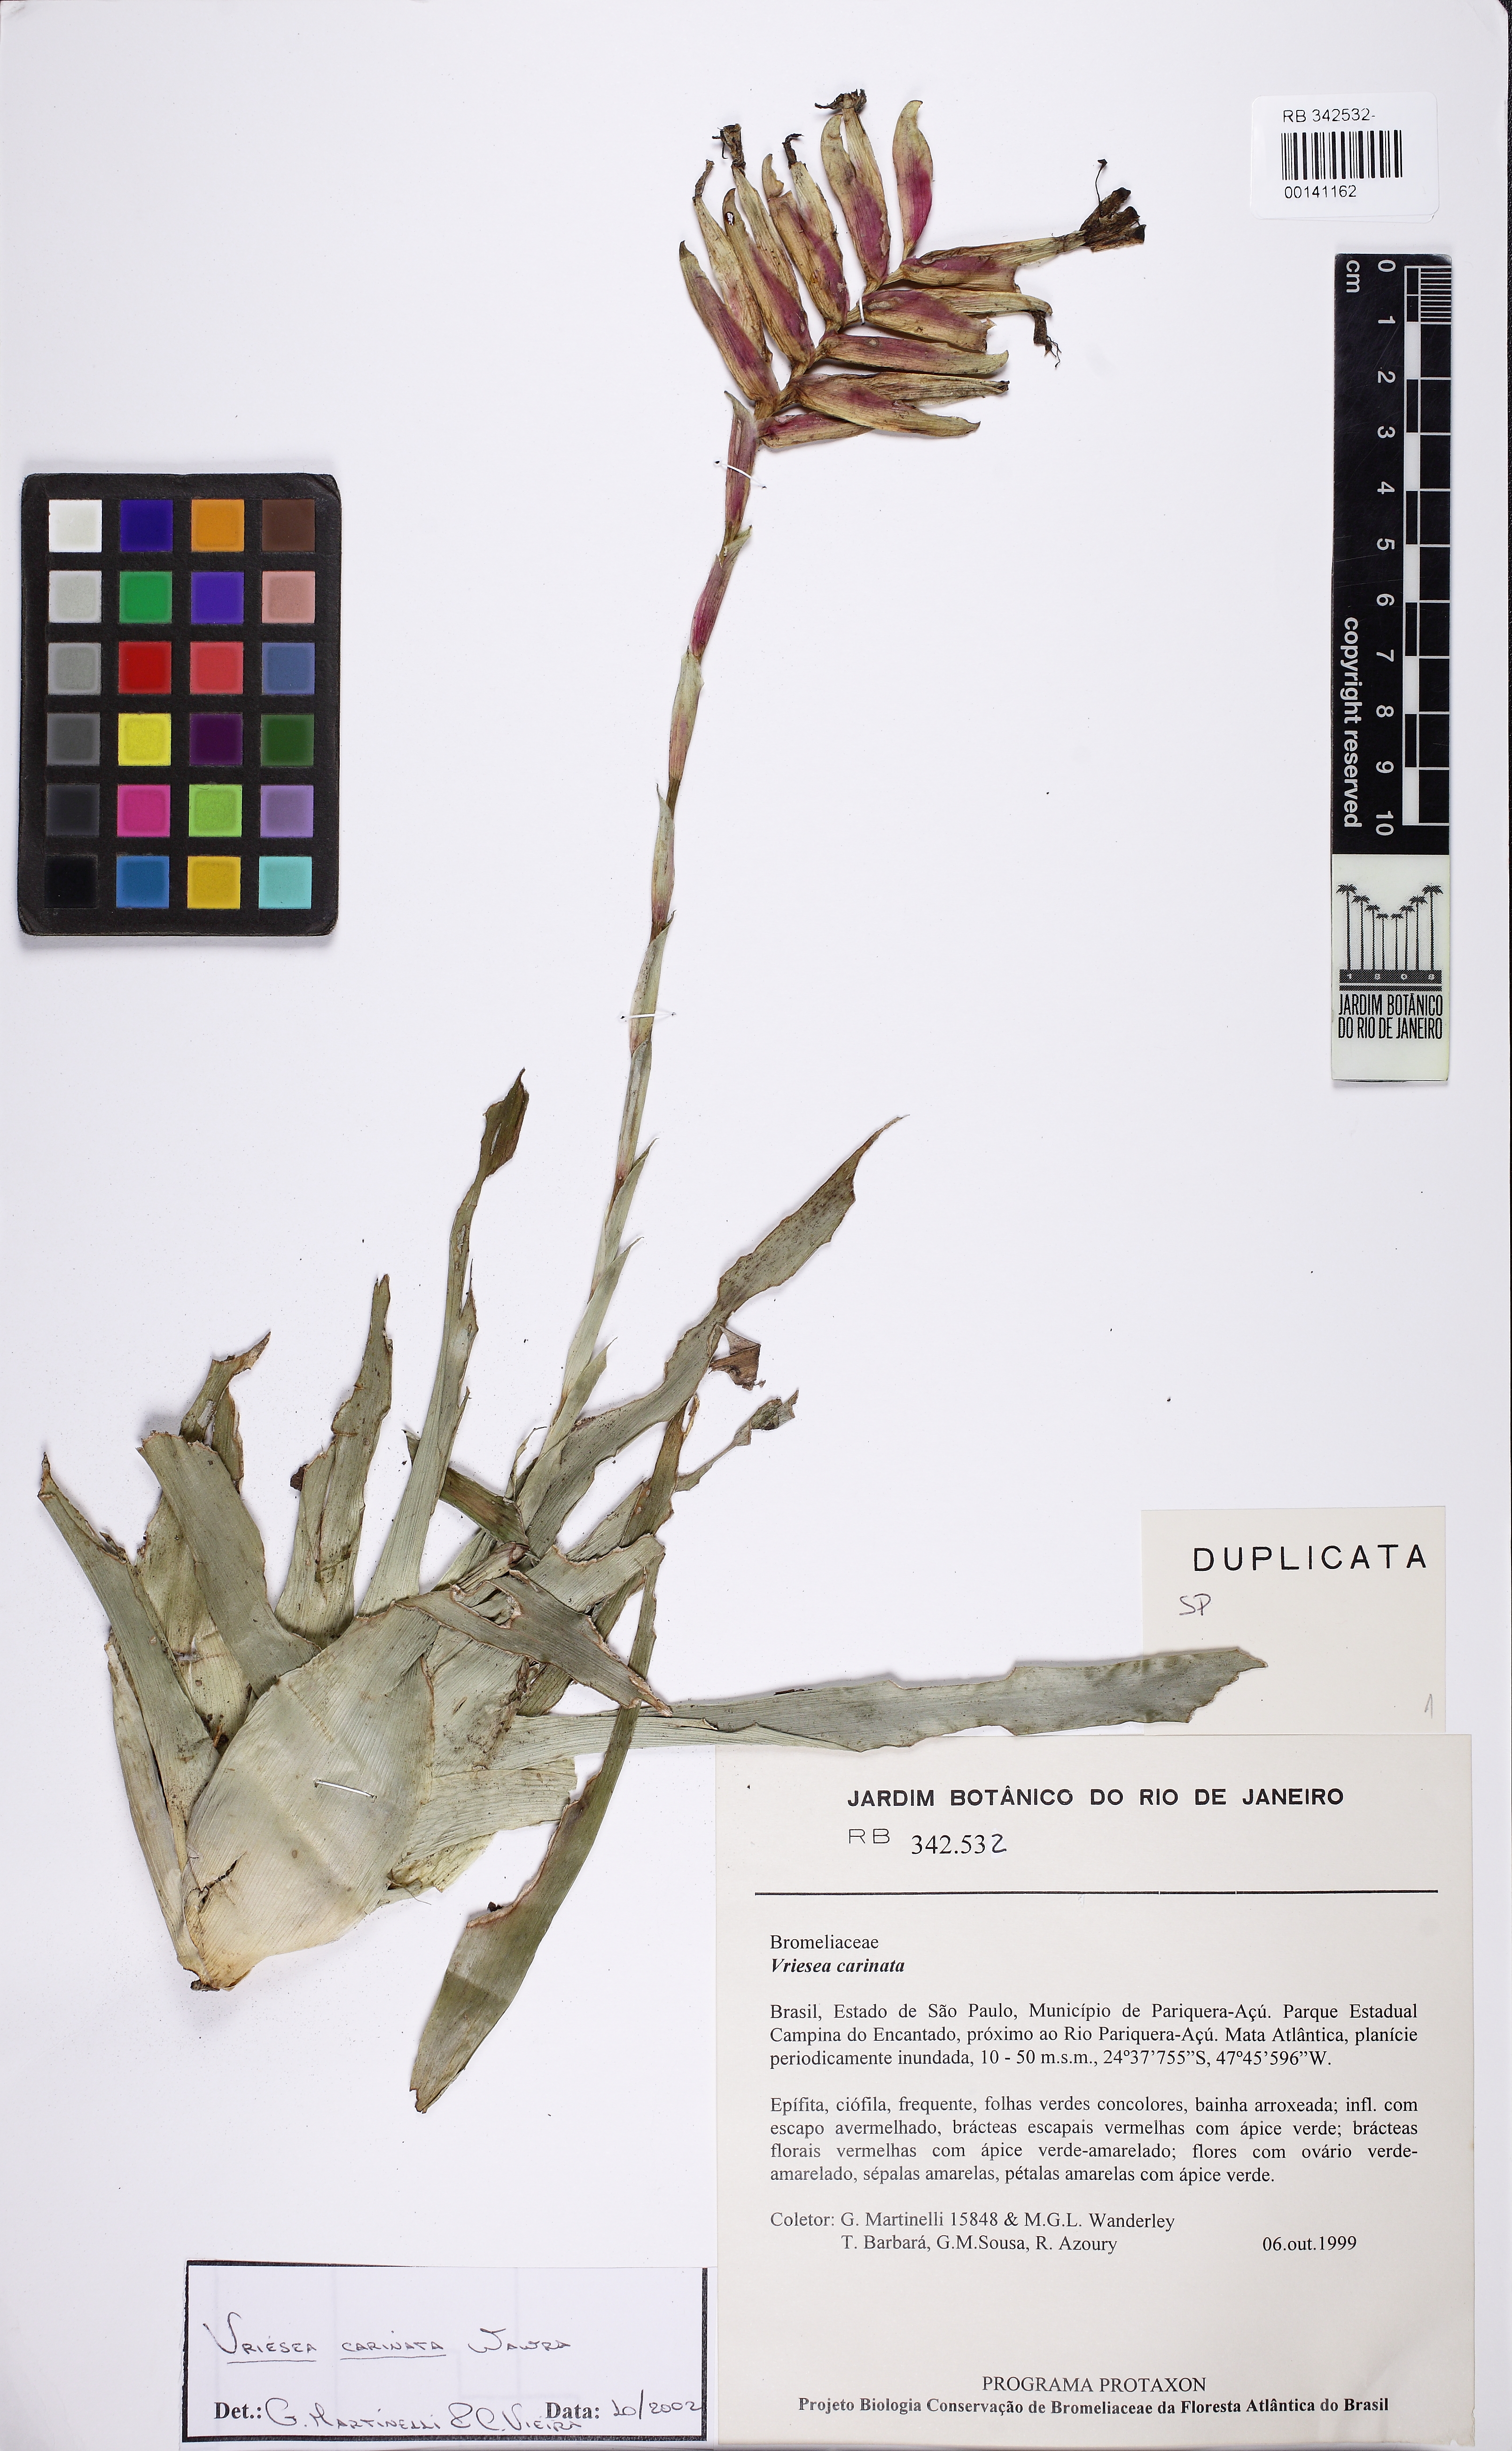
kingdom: Plantae
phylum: Tracheophyta
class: Liliopsida
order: Poales
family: Bromeliaceae
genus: Vriesea
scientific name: Vriesea carinata
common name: Lobster-claws
